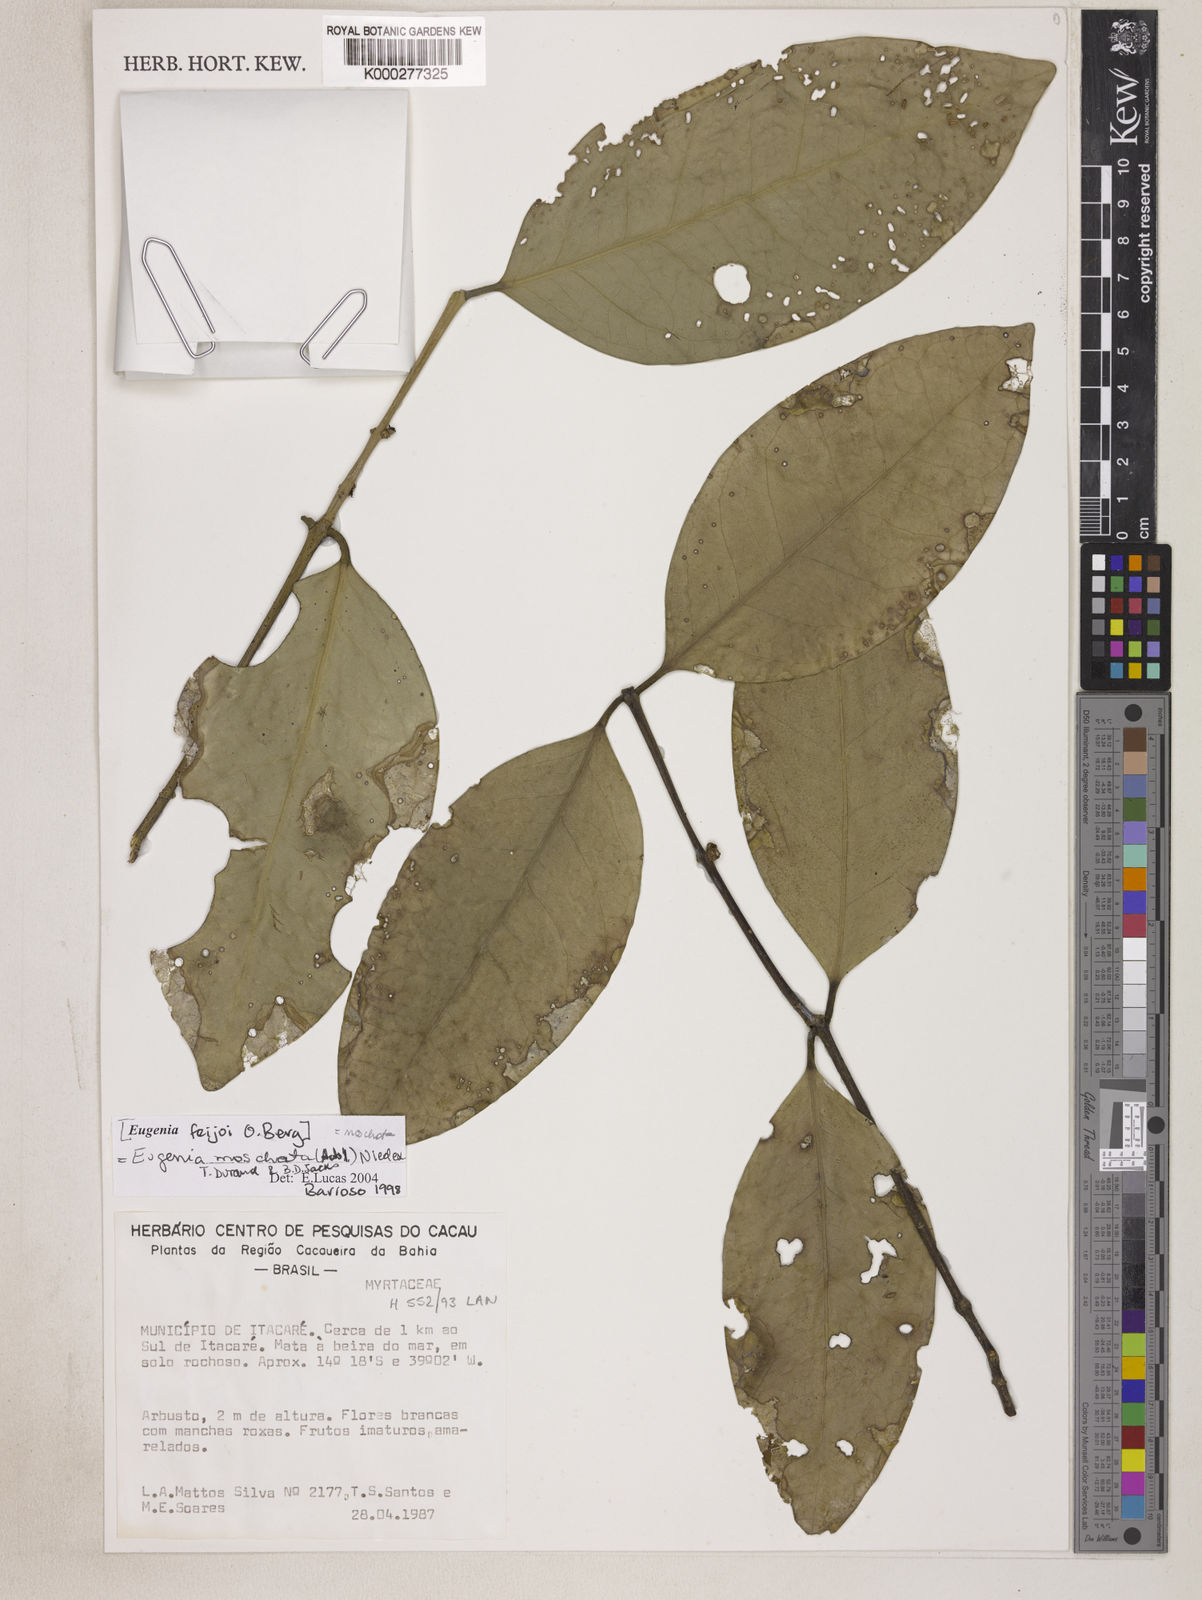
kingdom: Plantae
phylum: Tracheophyta
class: Magnoliopsida
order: Myrtales
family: Myrtaceae
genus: Eugenia
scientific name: Eugenia warmingiana
